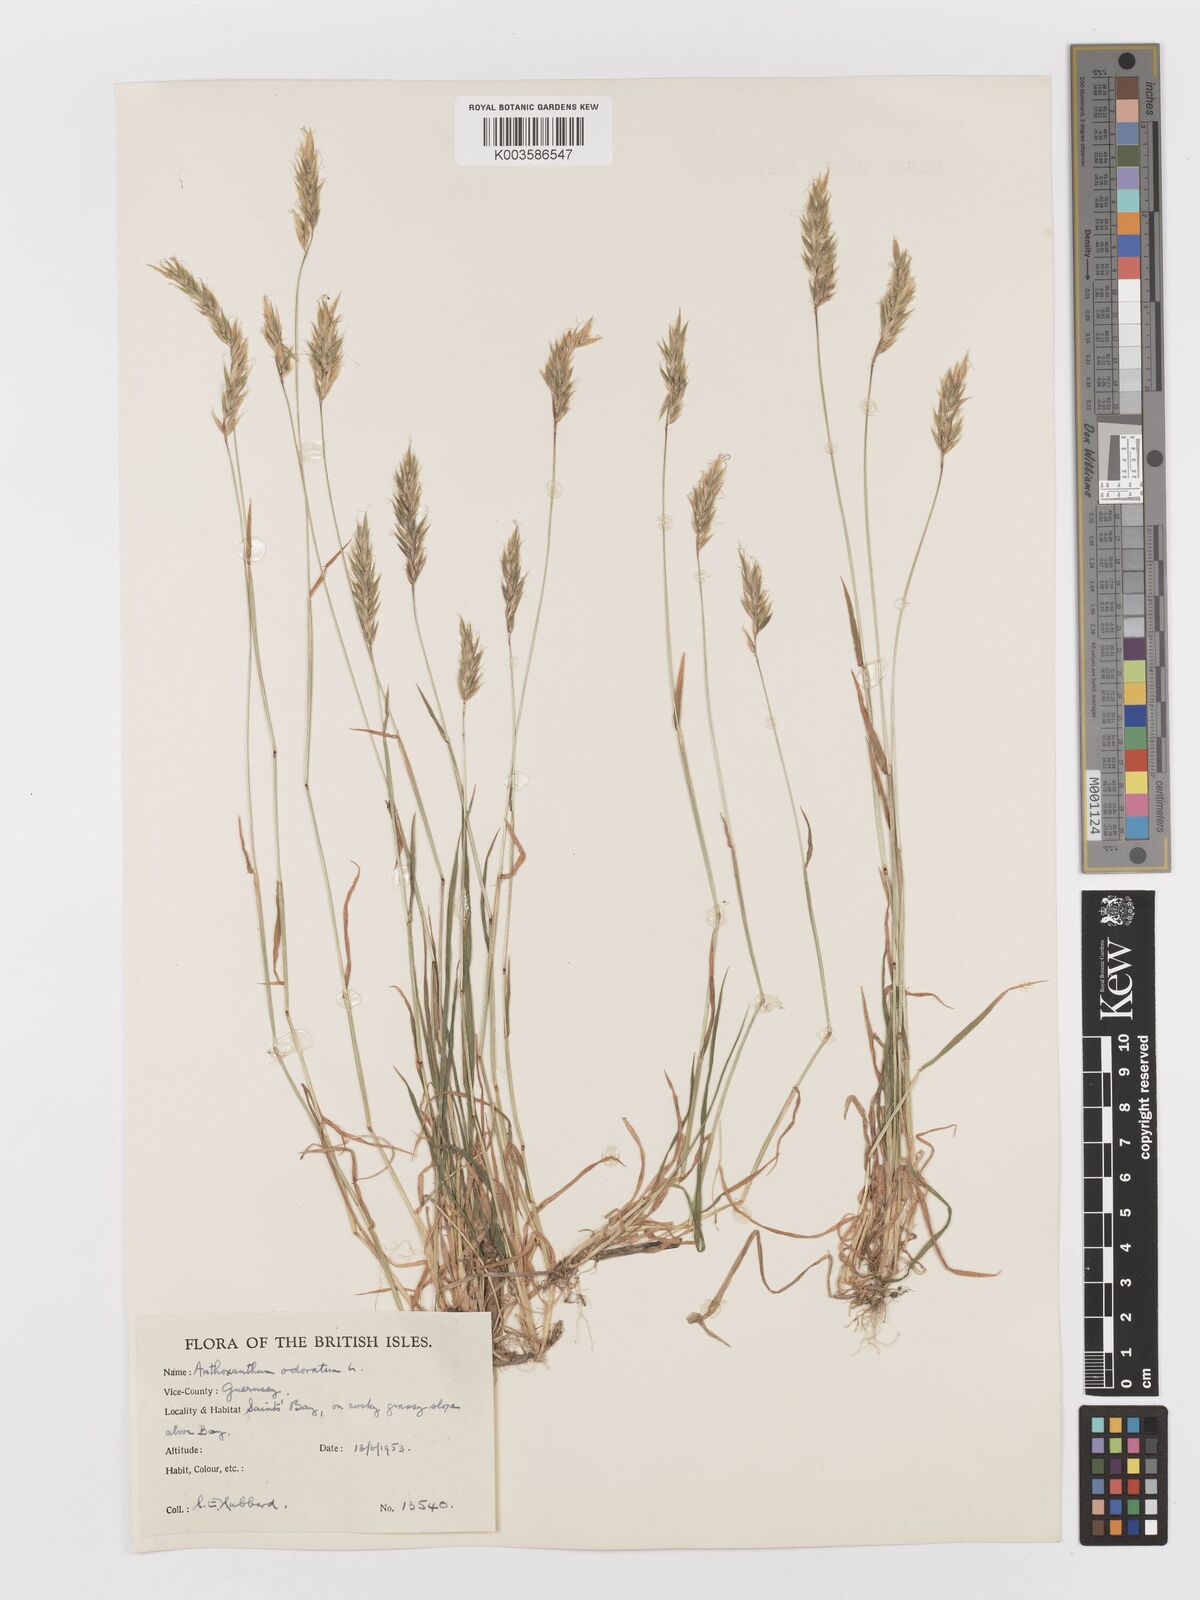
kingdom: Plantae
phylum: Tracheophyta
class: Liliopsida
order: Poales
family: Poaceae
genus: Anthoxanthum
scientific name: Anthoxanthum odoratum
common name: Sweet vernalgrass
